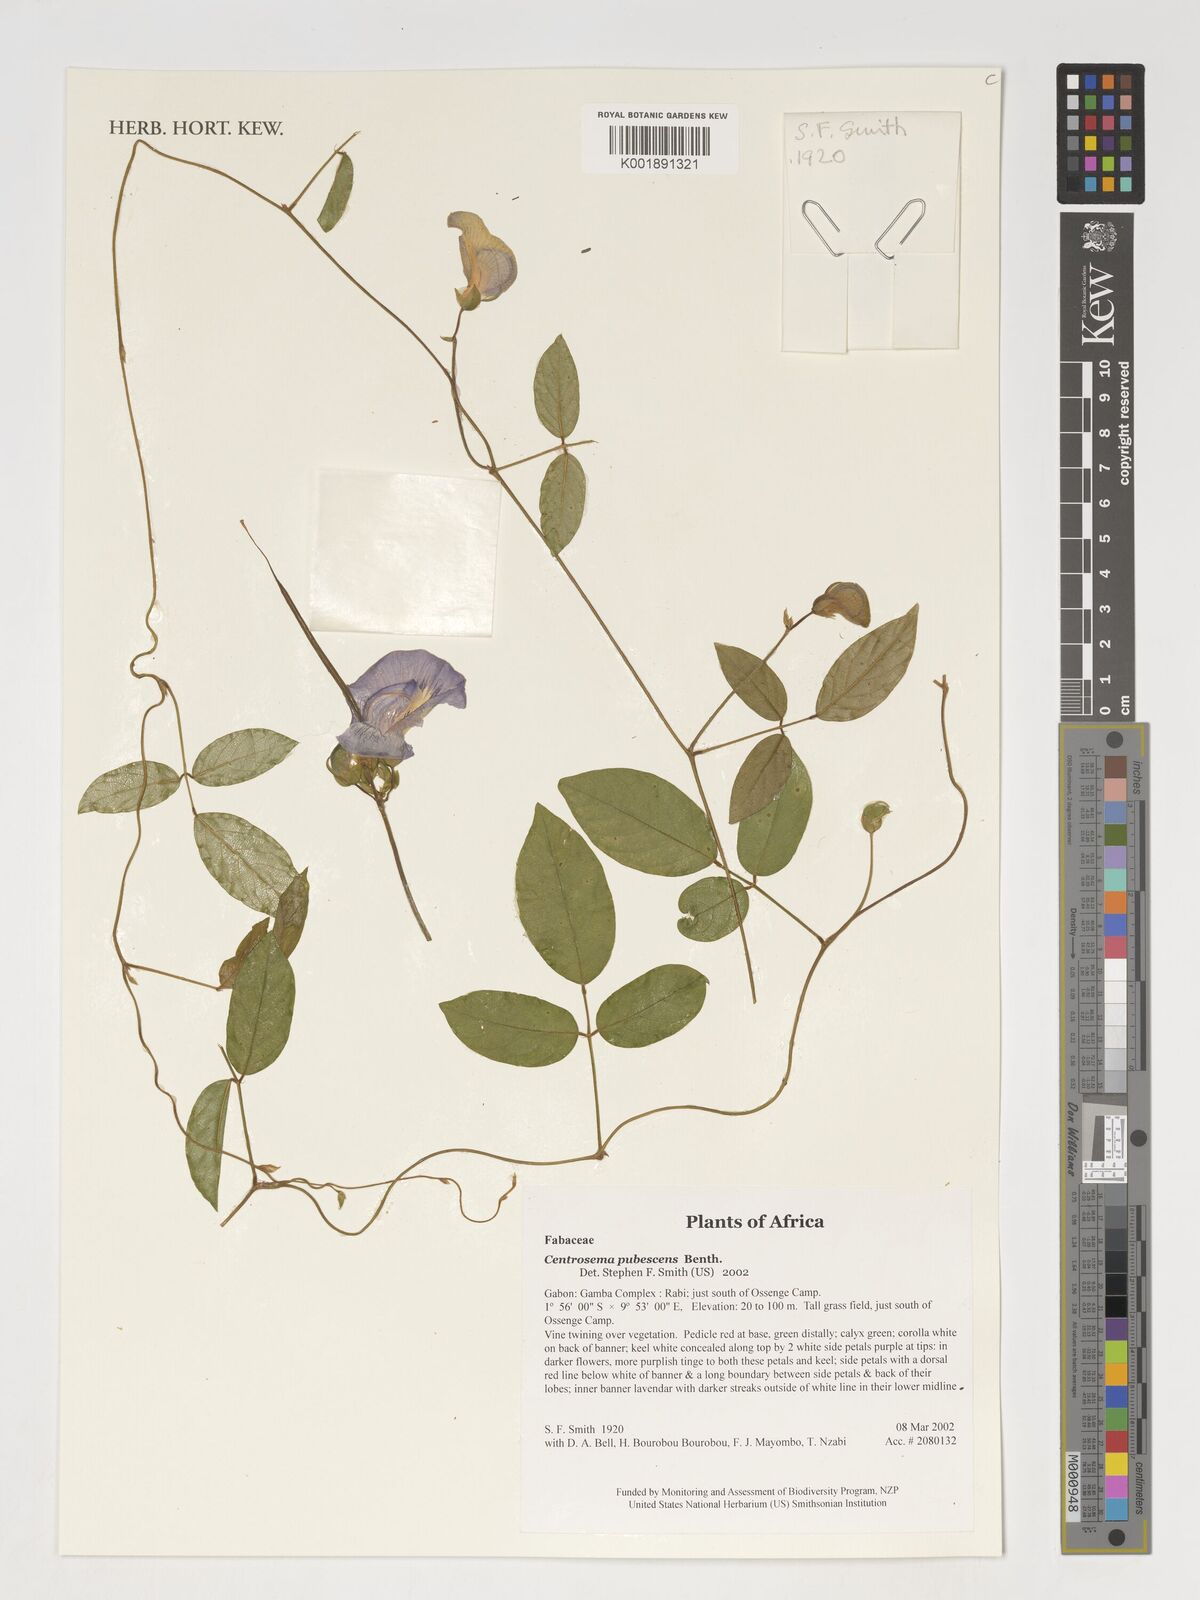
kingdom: Plantae
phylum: Tracheophyta
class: Magnoliopsida
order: Fabales
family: Fabaceae
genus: Centrosema
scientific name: Centrosema pubescens
